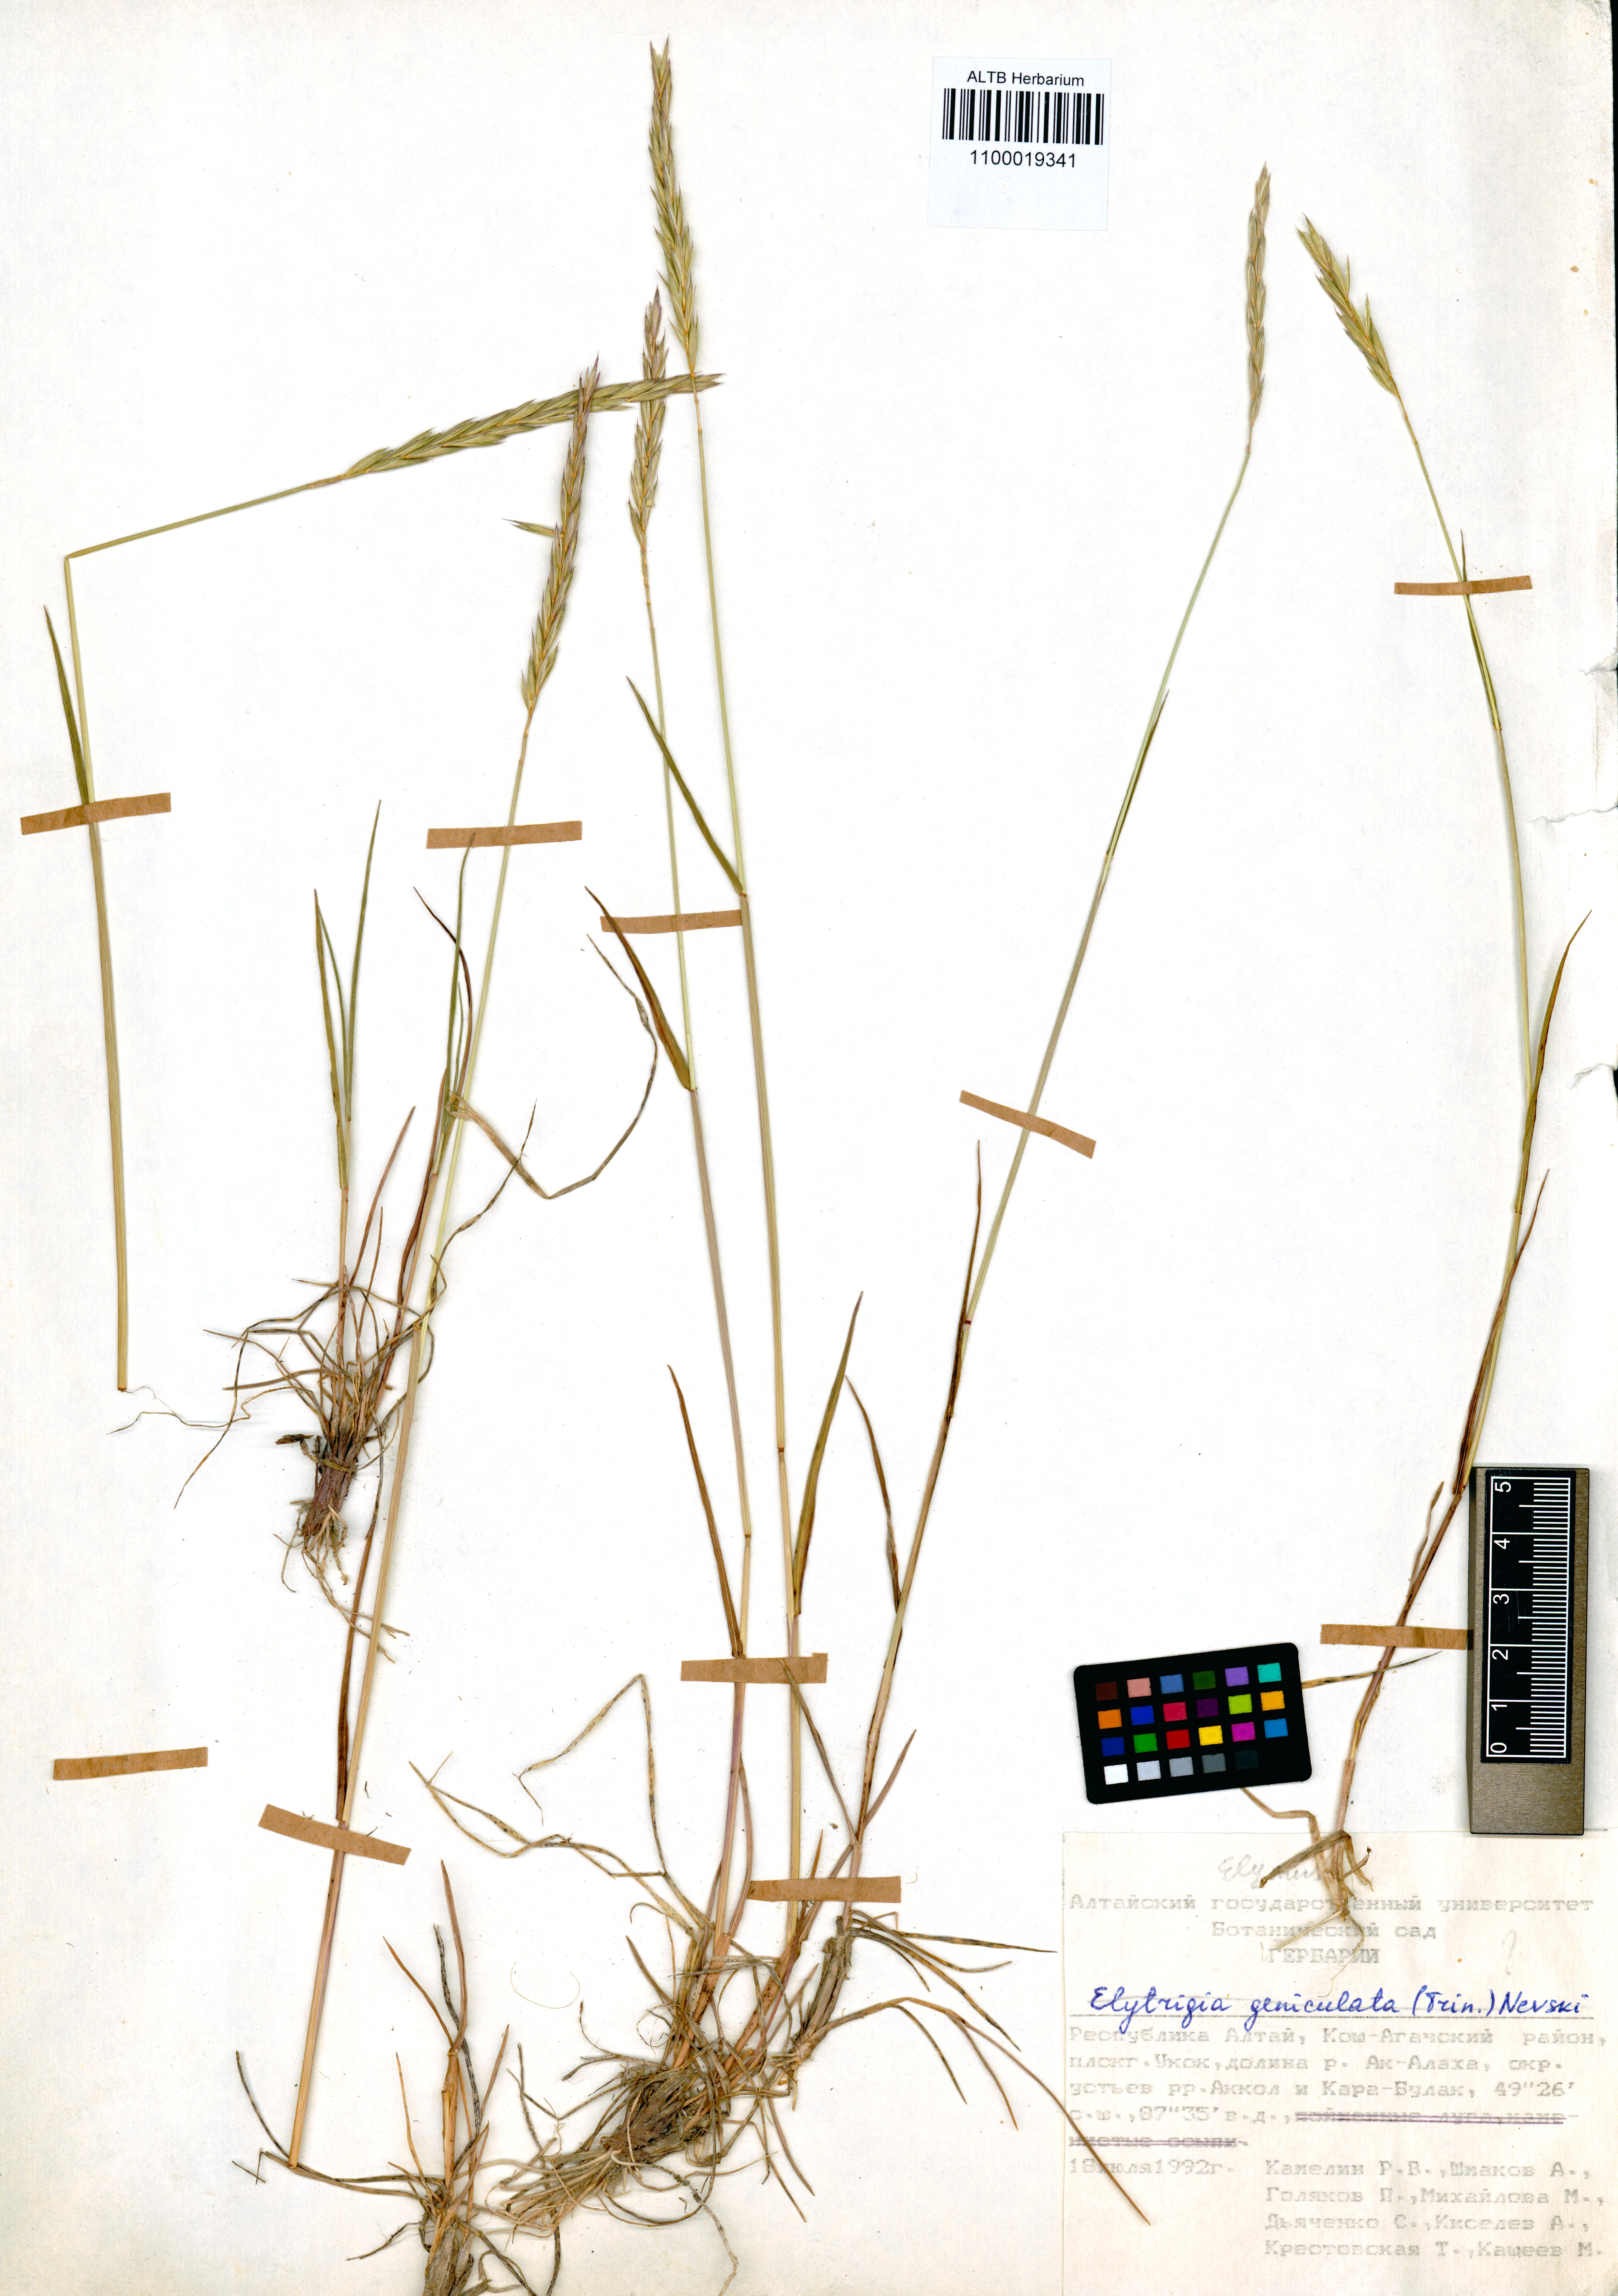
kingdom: Plantae
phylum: Tracheophyta
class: Liliopsida
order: Poales
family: Poaceae
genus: Elymus
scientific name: Elymus mutabilis
